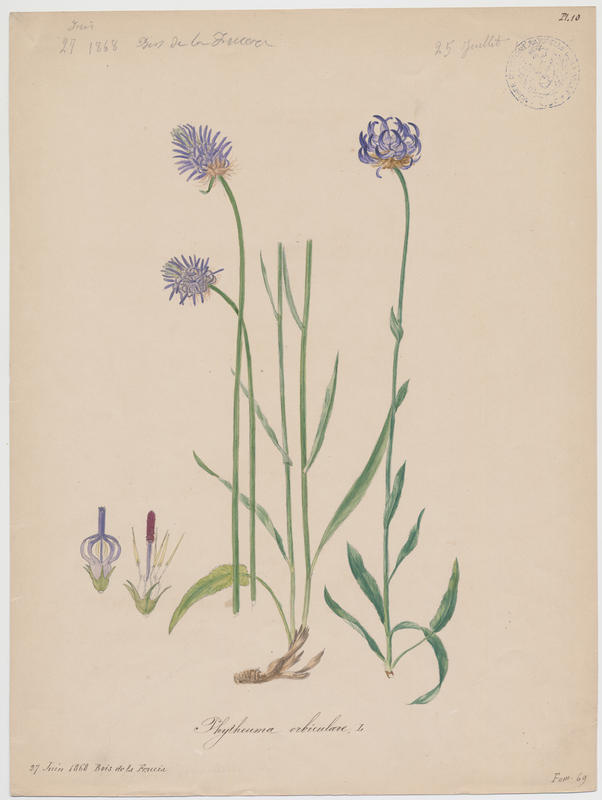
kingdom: Plantae
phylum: Tracheophyta
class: Magnoliopsida
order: Asterales
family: Campanulaceae
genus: Phyteuma
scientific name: Phyteuma orbiculare
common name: Round-headed rampion
